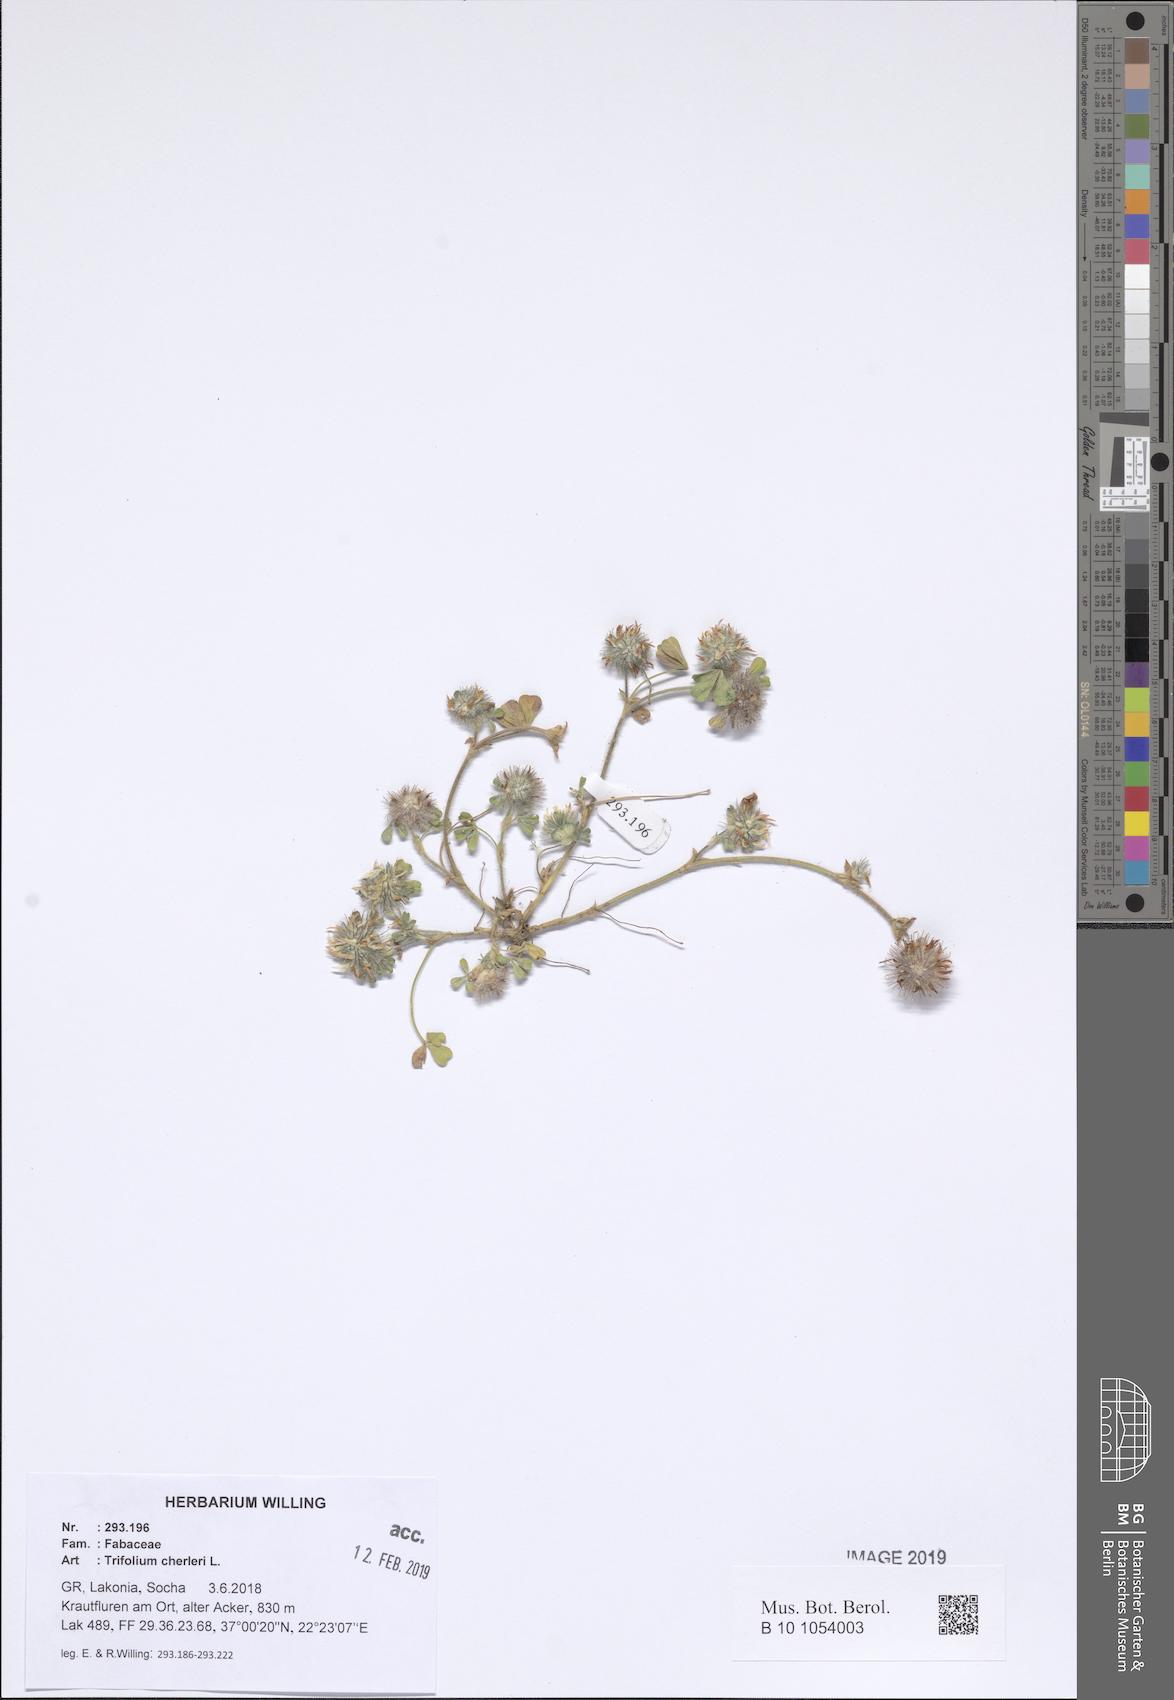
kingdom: Plantae
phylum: Tracheophyta
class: Magnoliopsida
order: Fabales
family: Fabaceae
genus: Trifolium
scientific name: Trifolium cherleri
